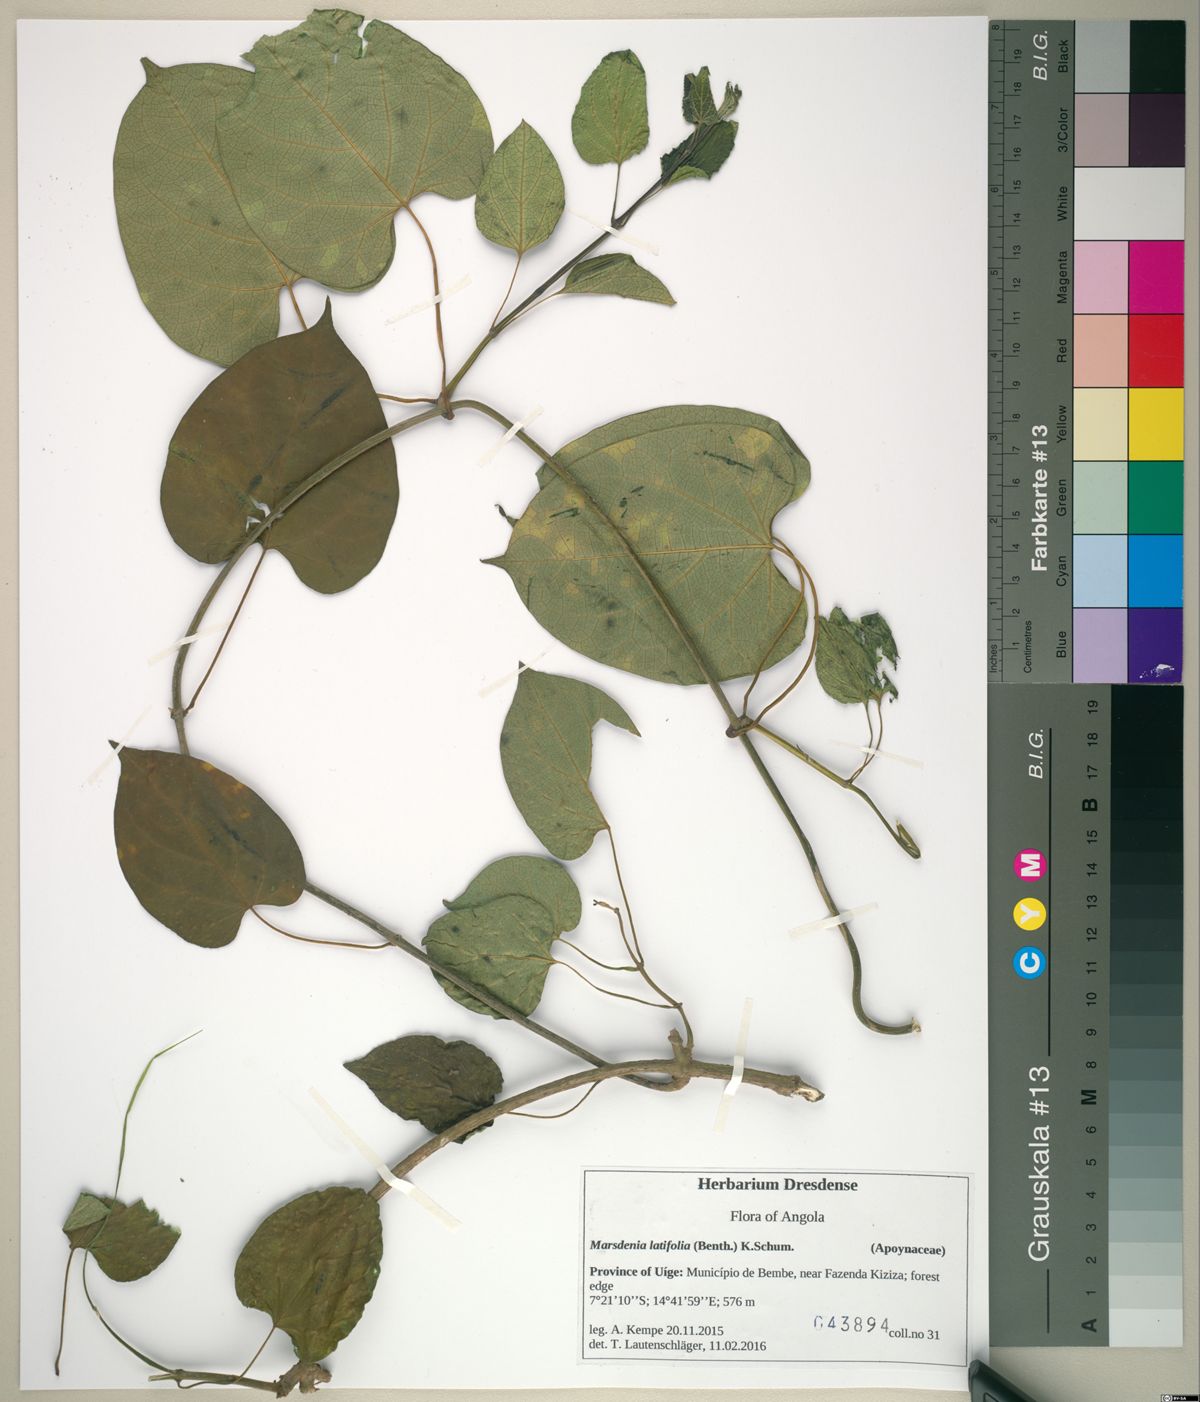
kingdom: Plantae
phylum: Tracheophyta
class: Magnoliopsida
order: Gentianales
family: Apocynaceae
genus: Gongronemopsis
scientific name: Gongronemopsis latifolia
